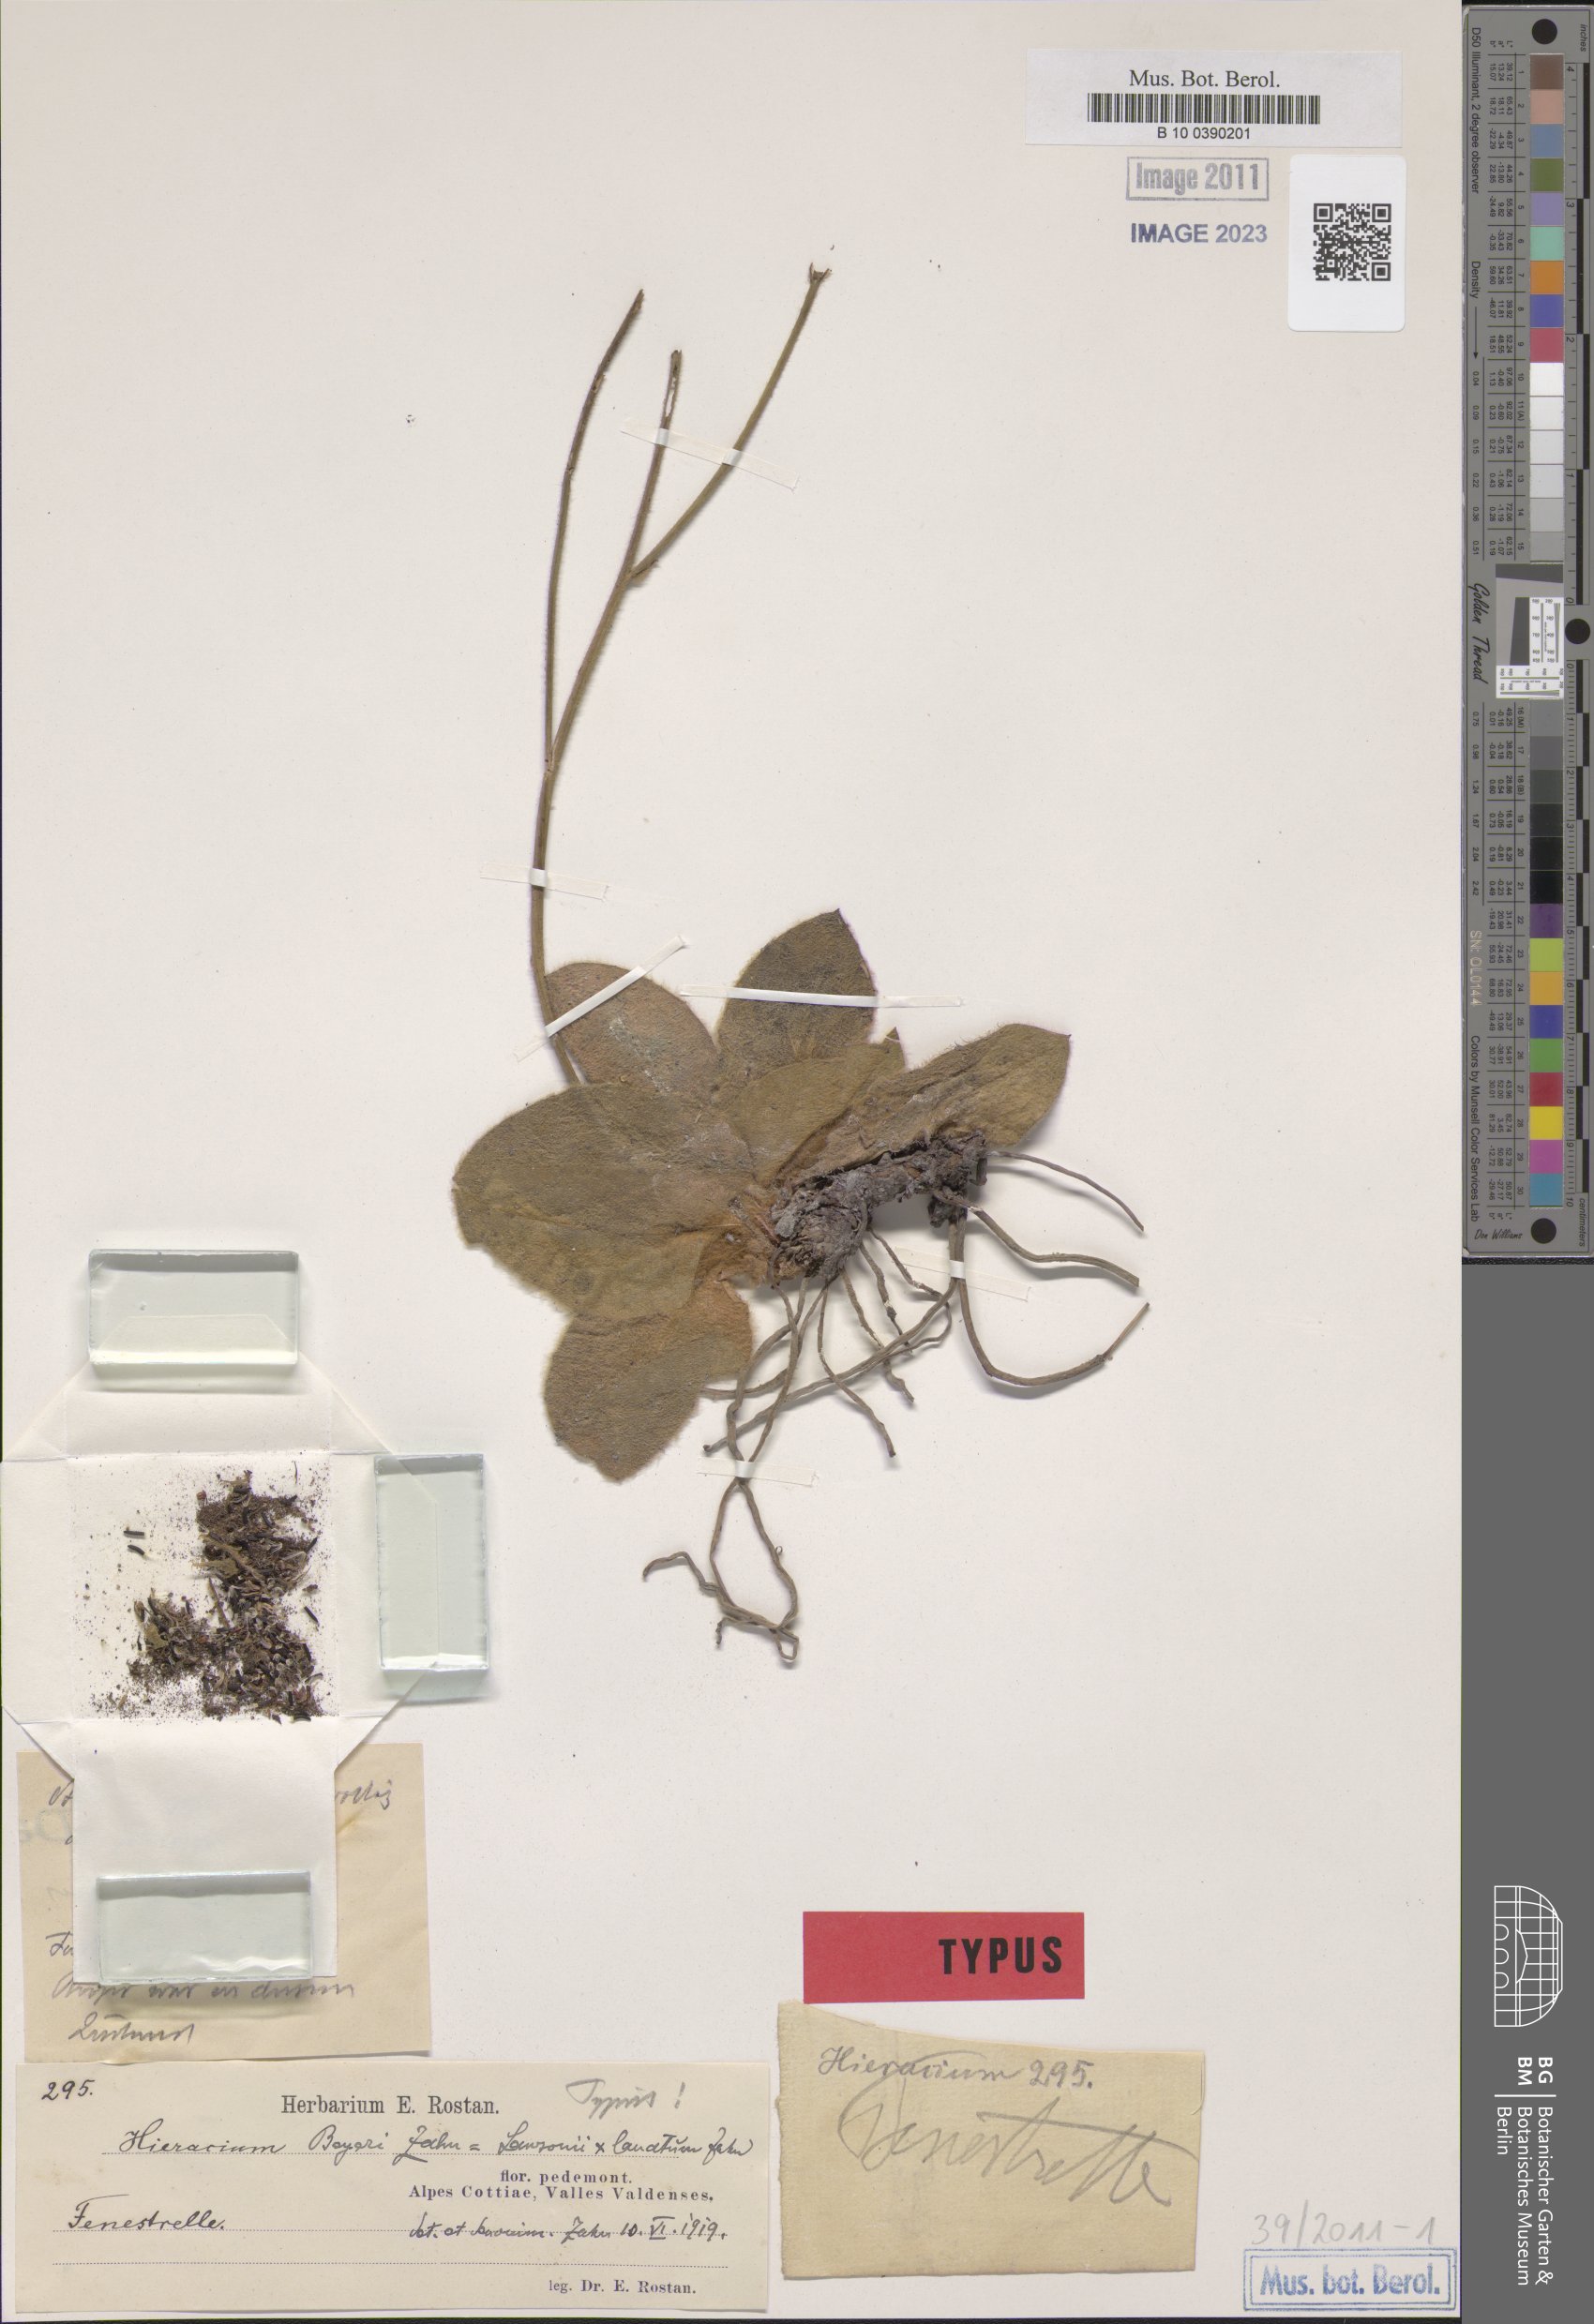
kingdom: Plantae
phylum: Tracheophyta
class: Magnoliopsida
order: Asterales
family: Asteraceae
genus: Hieracium
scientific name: Hieracium beyeri
